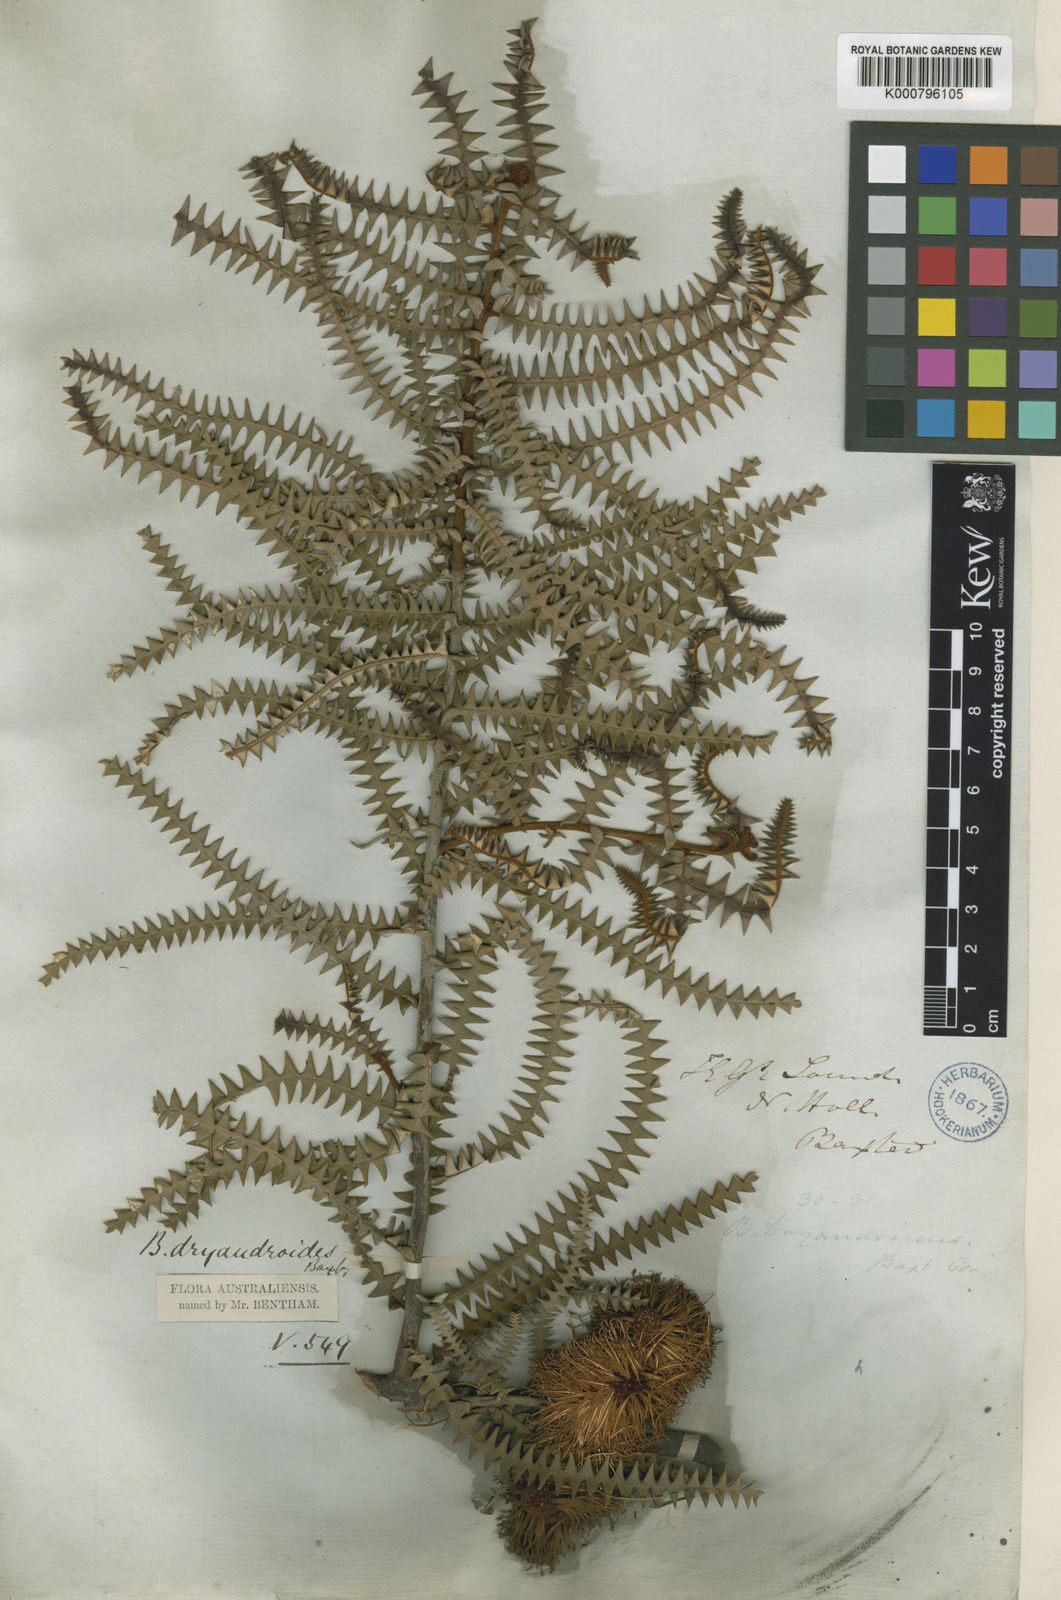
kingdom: Plantae
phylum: Tracheophyta
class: Magnoliopsida
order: Proteales
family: Proteaceae
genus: Banksia
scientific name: Banksia dryandroides
